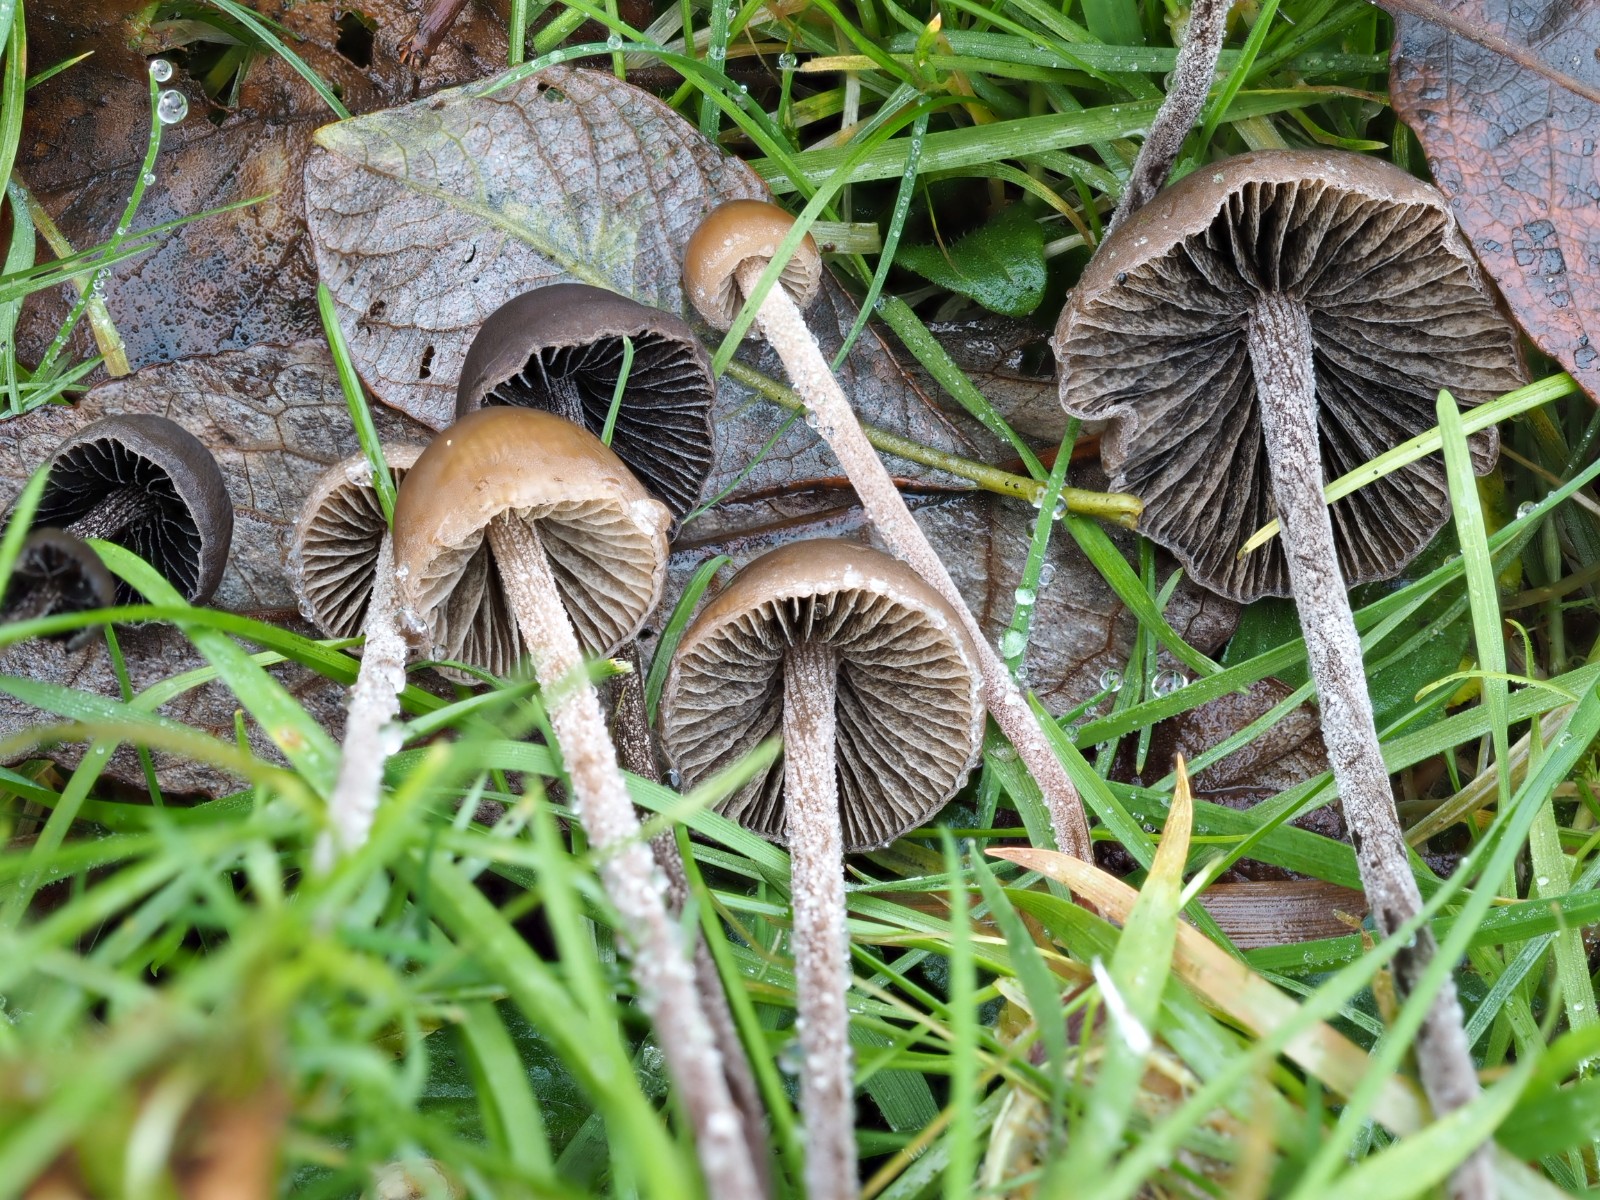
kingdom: Fungi
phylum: Basidiomycota
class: Agaricomycetes
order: Agaricales
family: Bolbitiaceae
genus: Panaeolus
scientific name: Panaeolus acuminatus
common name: høj glanshat
